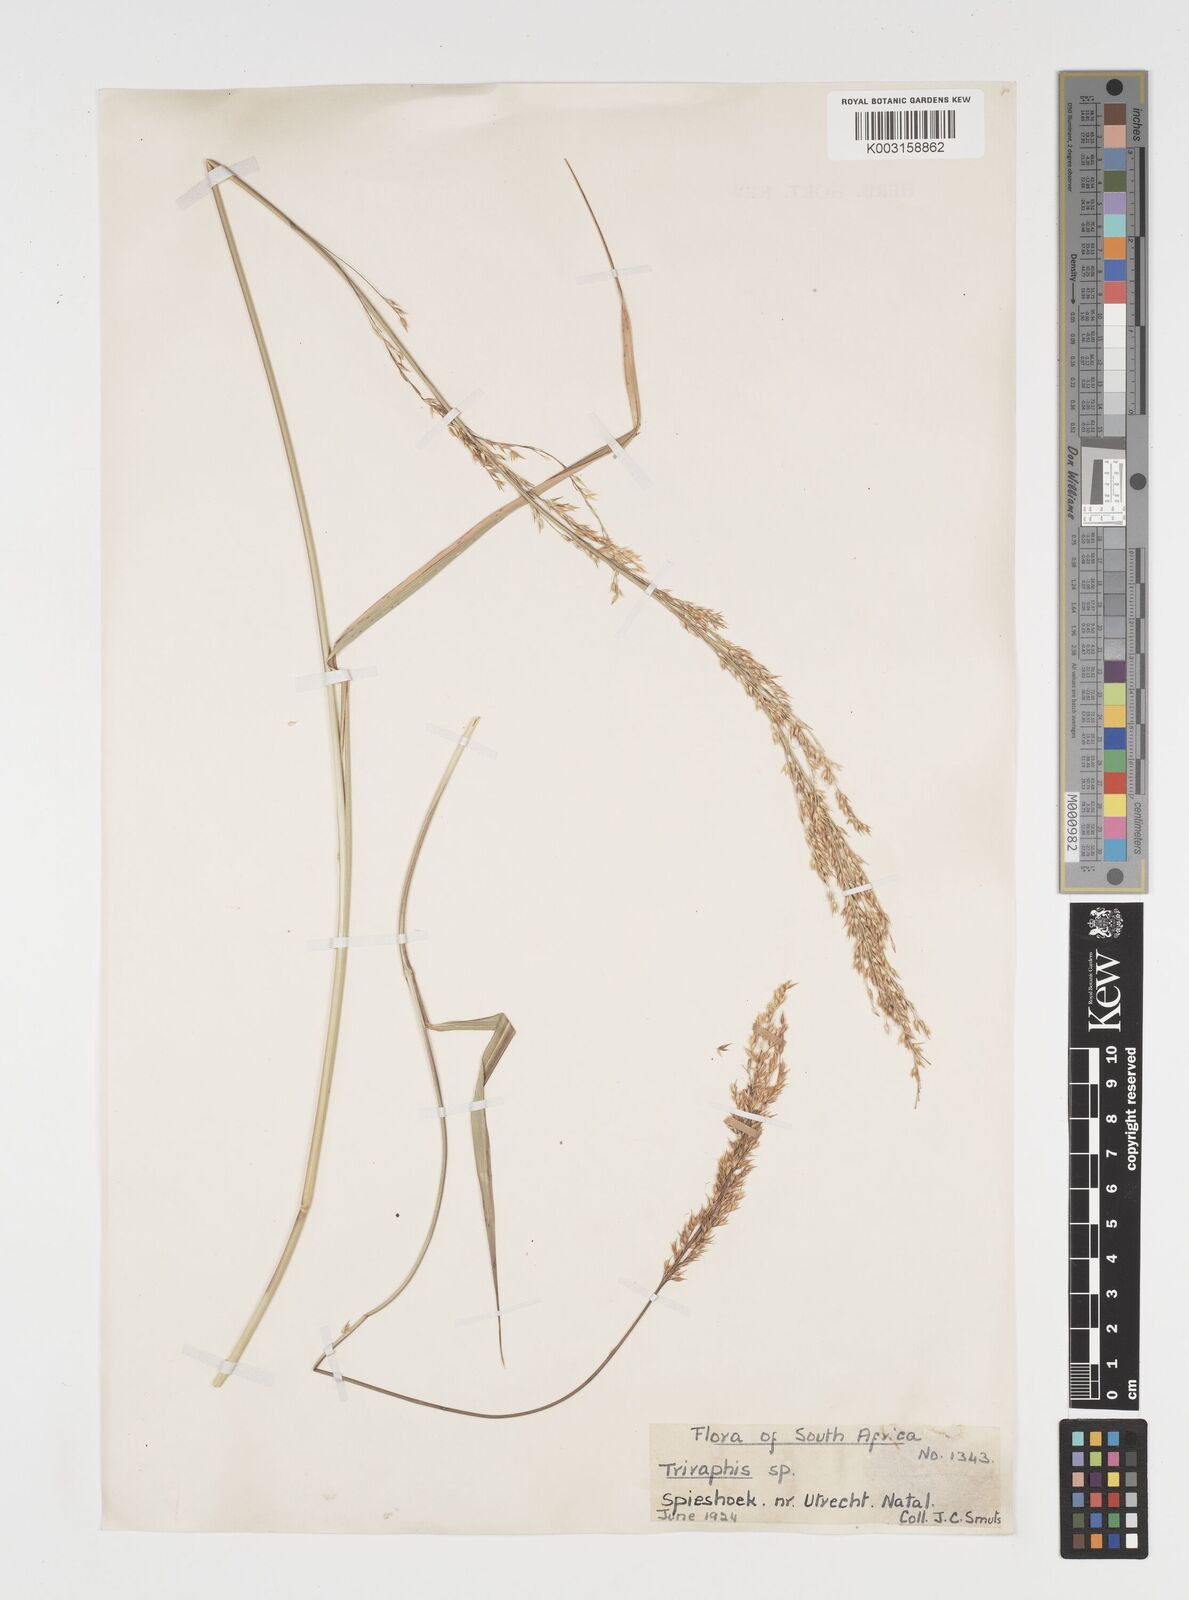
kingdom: Plantae
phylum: Tracheophyta
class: Liliopsida
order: Poales
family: Poaceae
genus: Arundinella
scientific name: Arundinella nepalensis
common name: Reed grass
